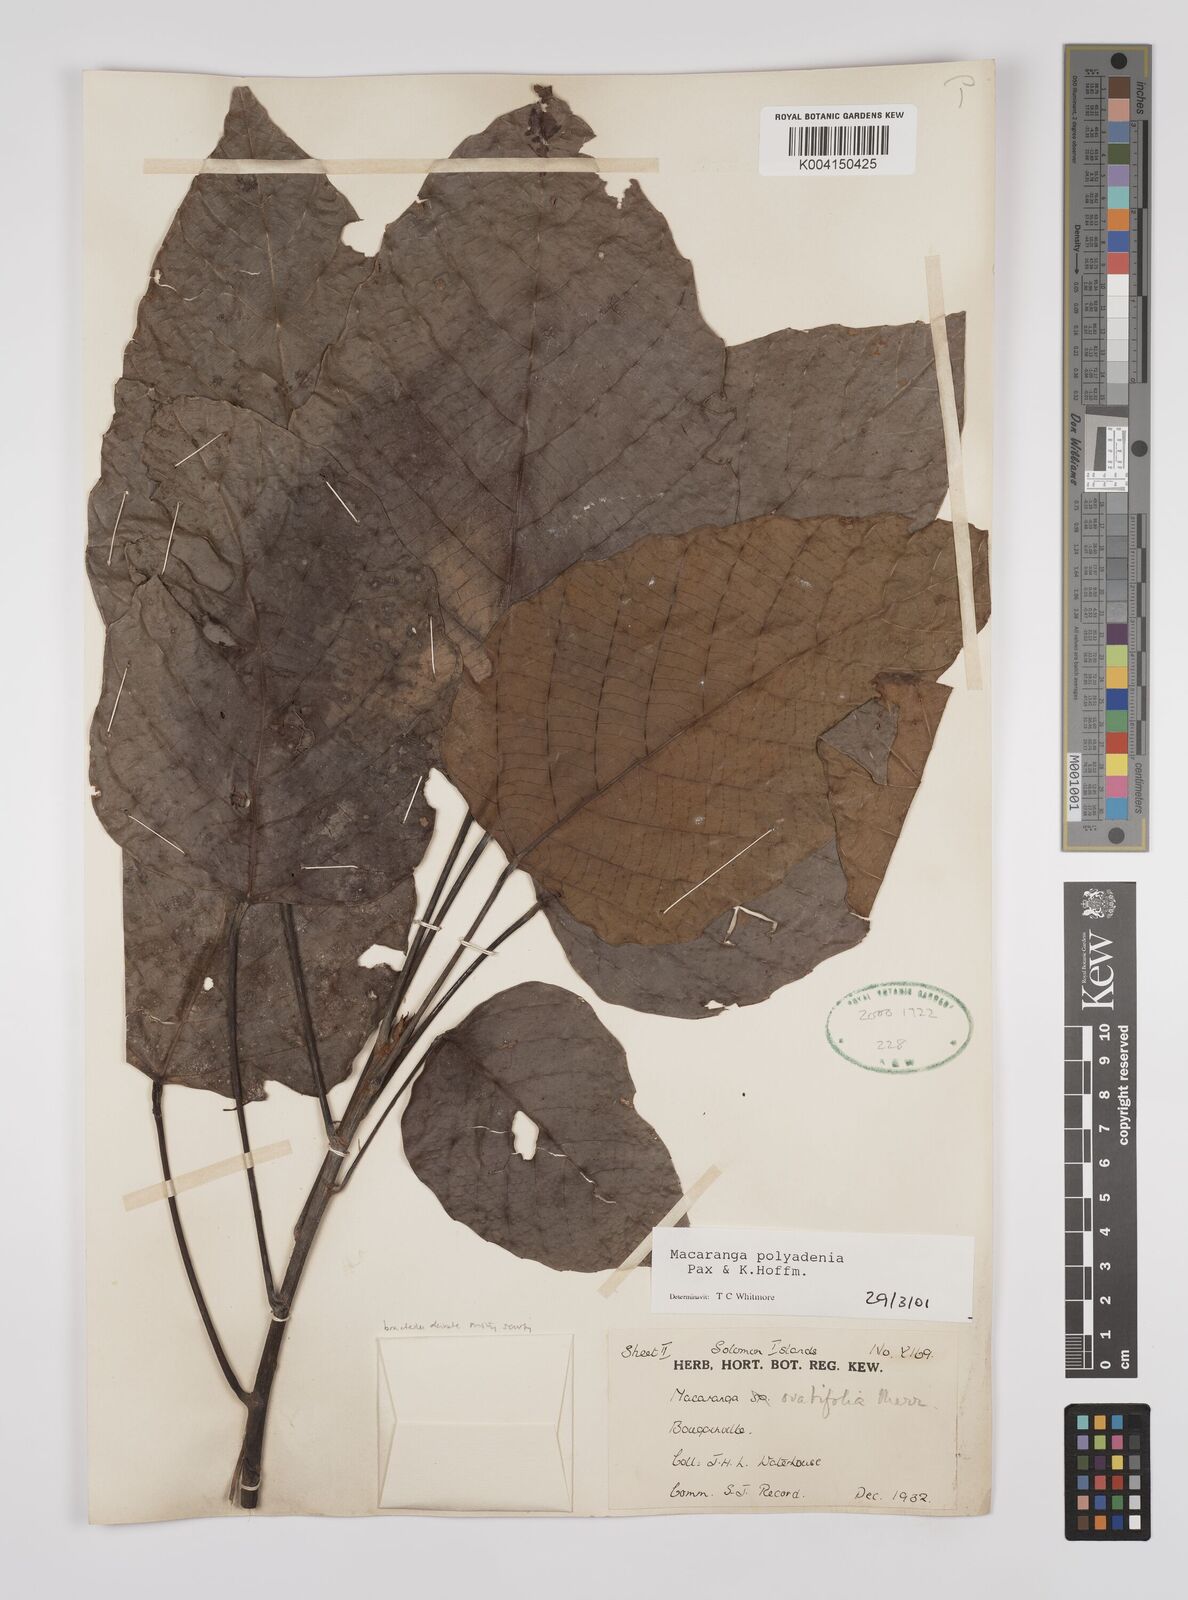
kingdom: Plantae
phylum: Tracheophyta
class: Magnoliopsida
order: Malpighiales
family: Euphorbiaceae
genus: Macaranga
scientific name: Macaranga polyadenia
